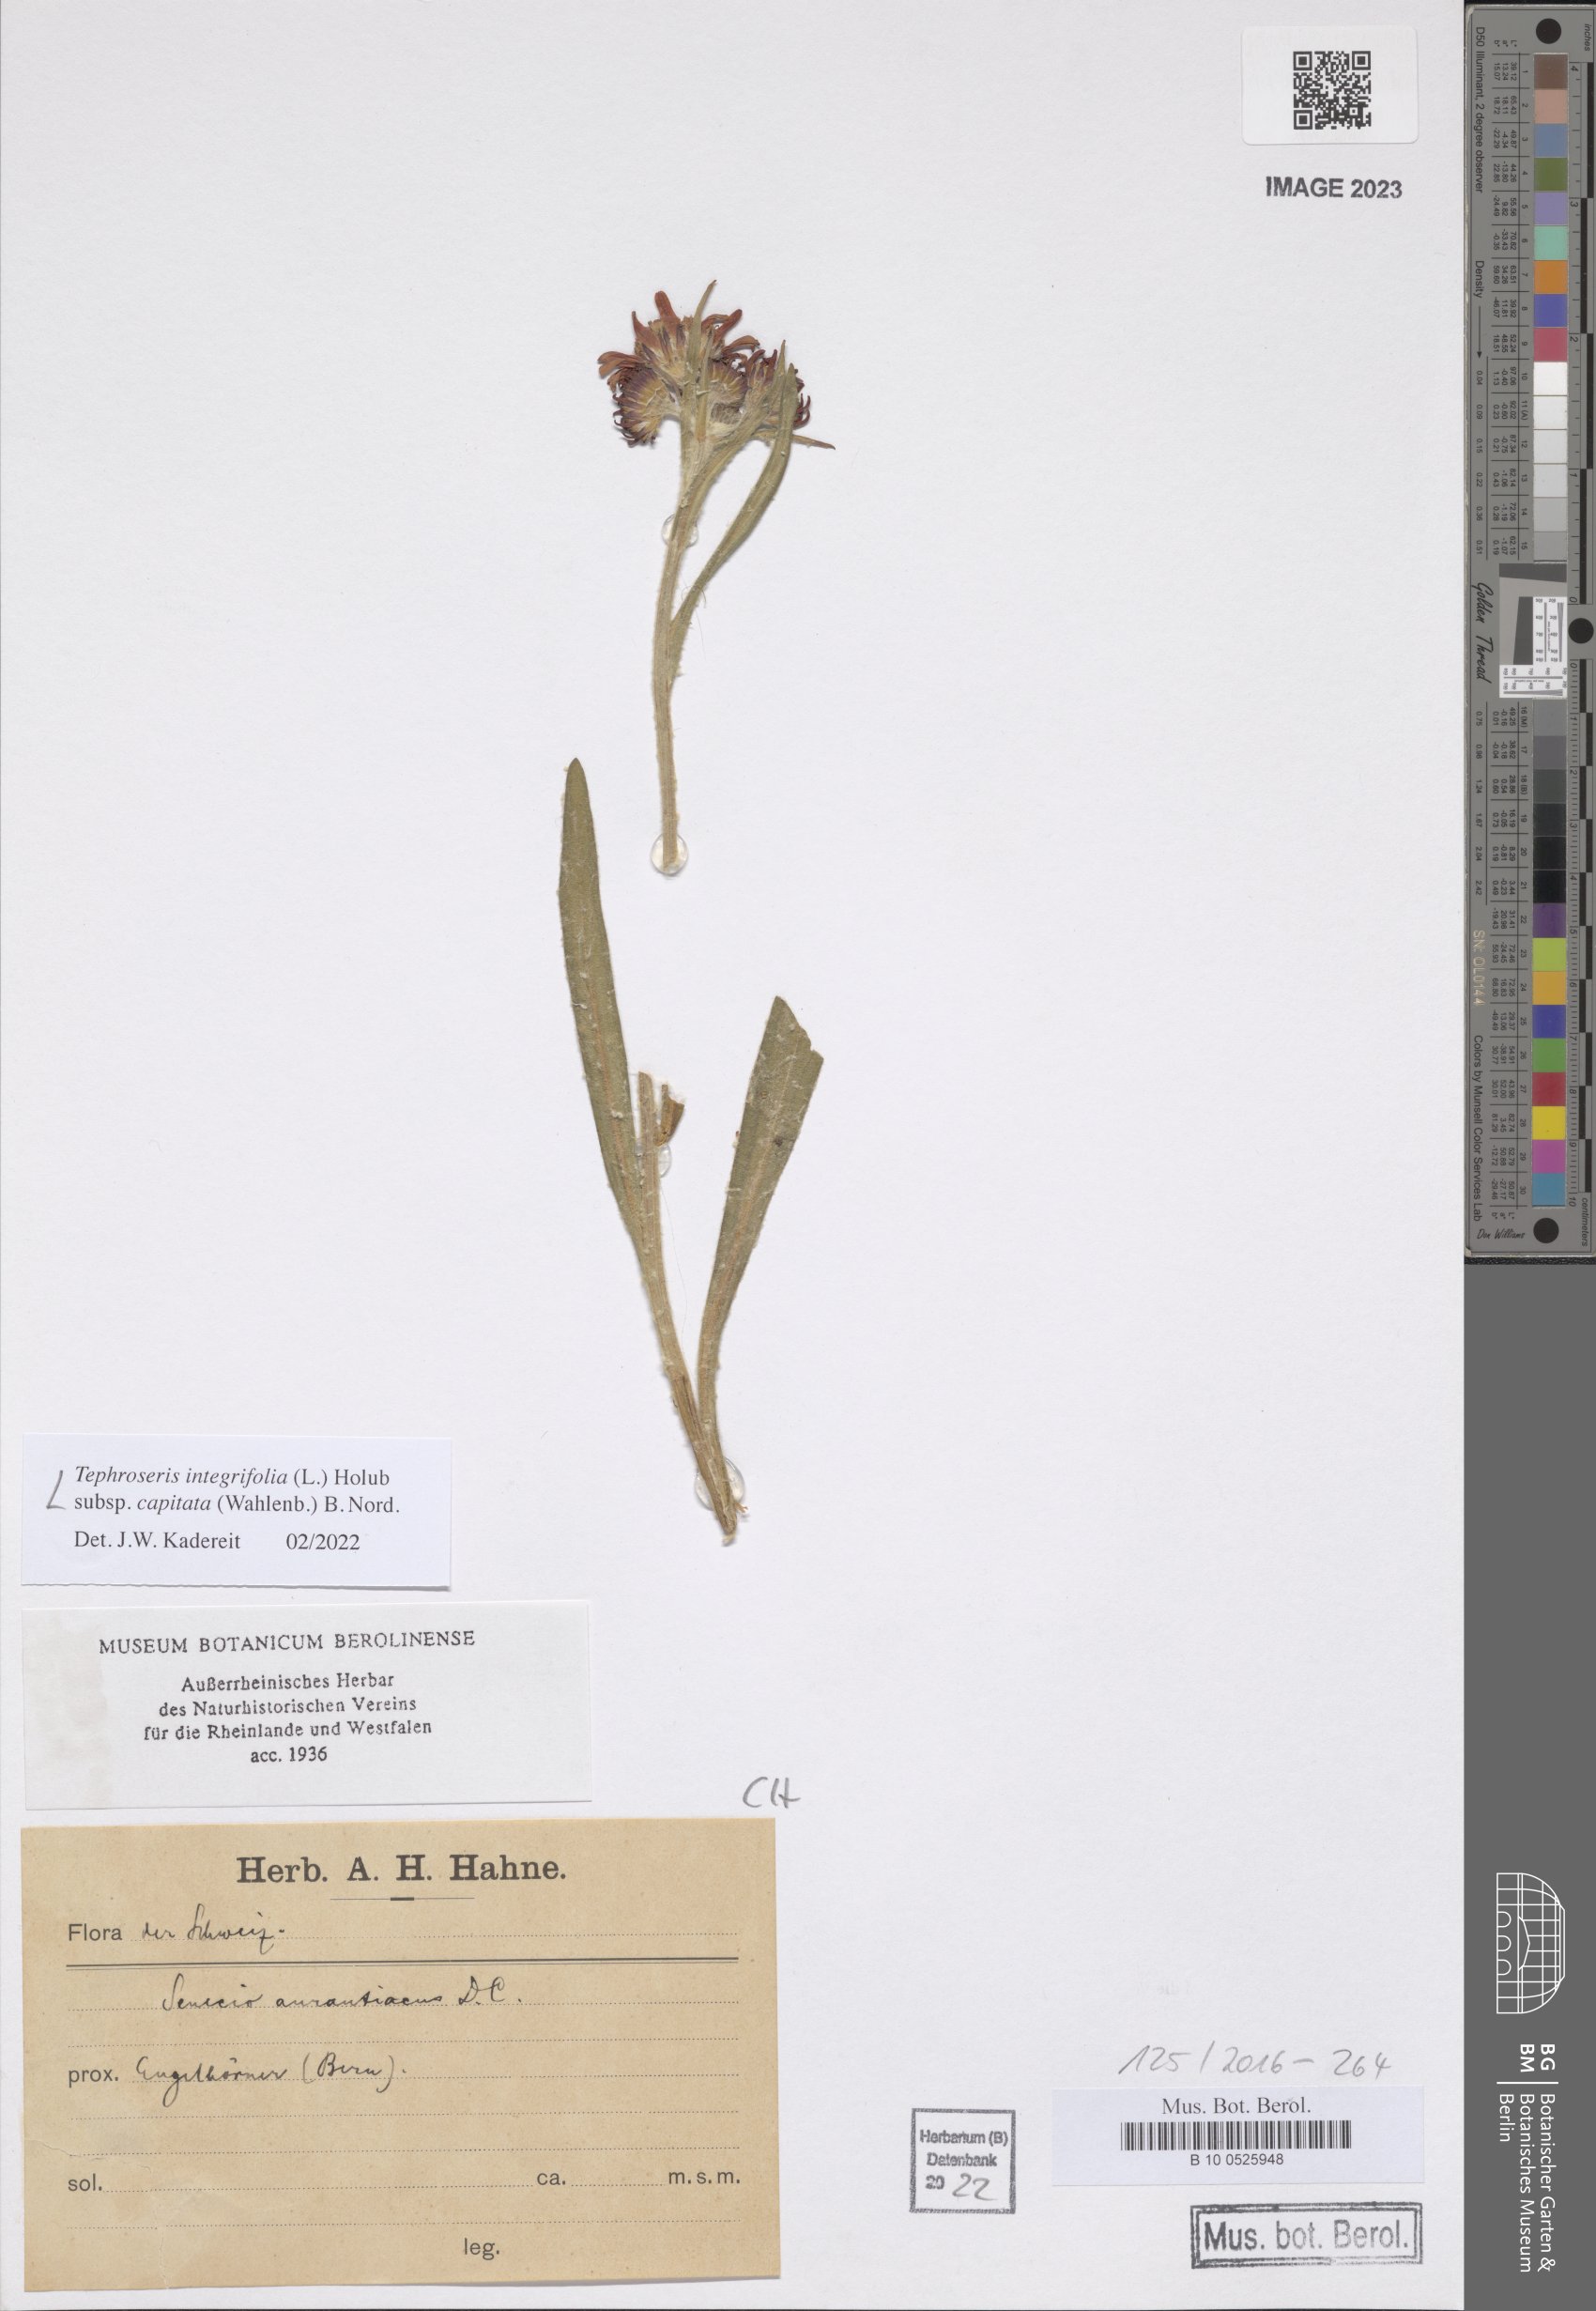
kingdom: Plantae
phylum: Tracheophyta
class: Magnoliopsida
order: Asterales
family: Asteraceae
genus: Tephroseris
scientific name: Tephroseris integrifolia
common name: Field fleawort
